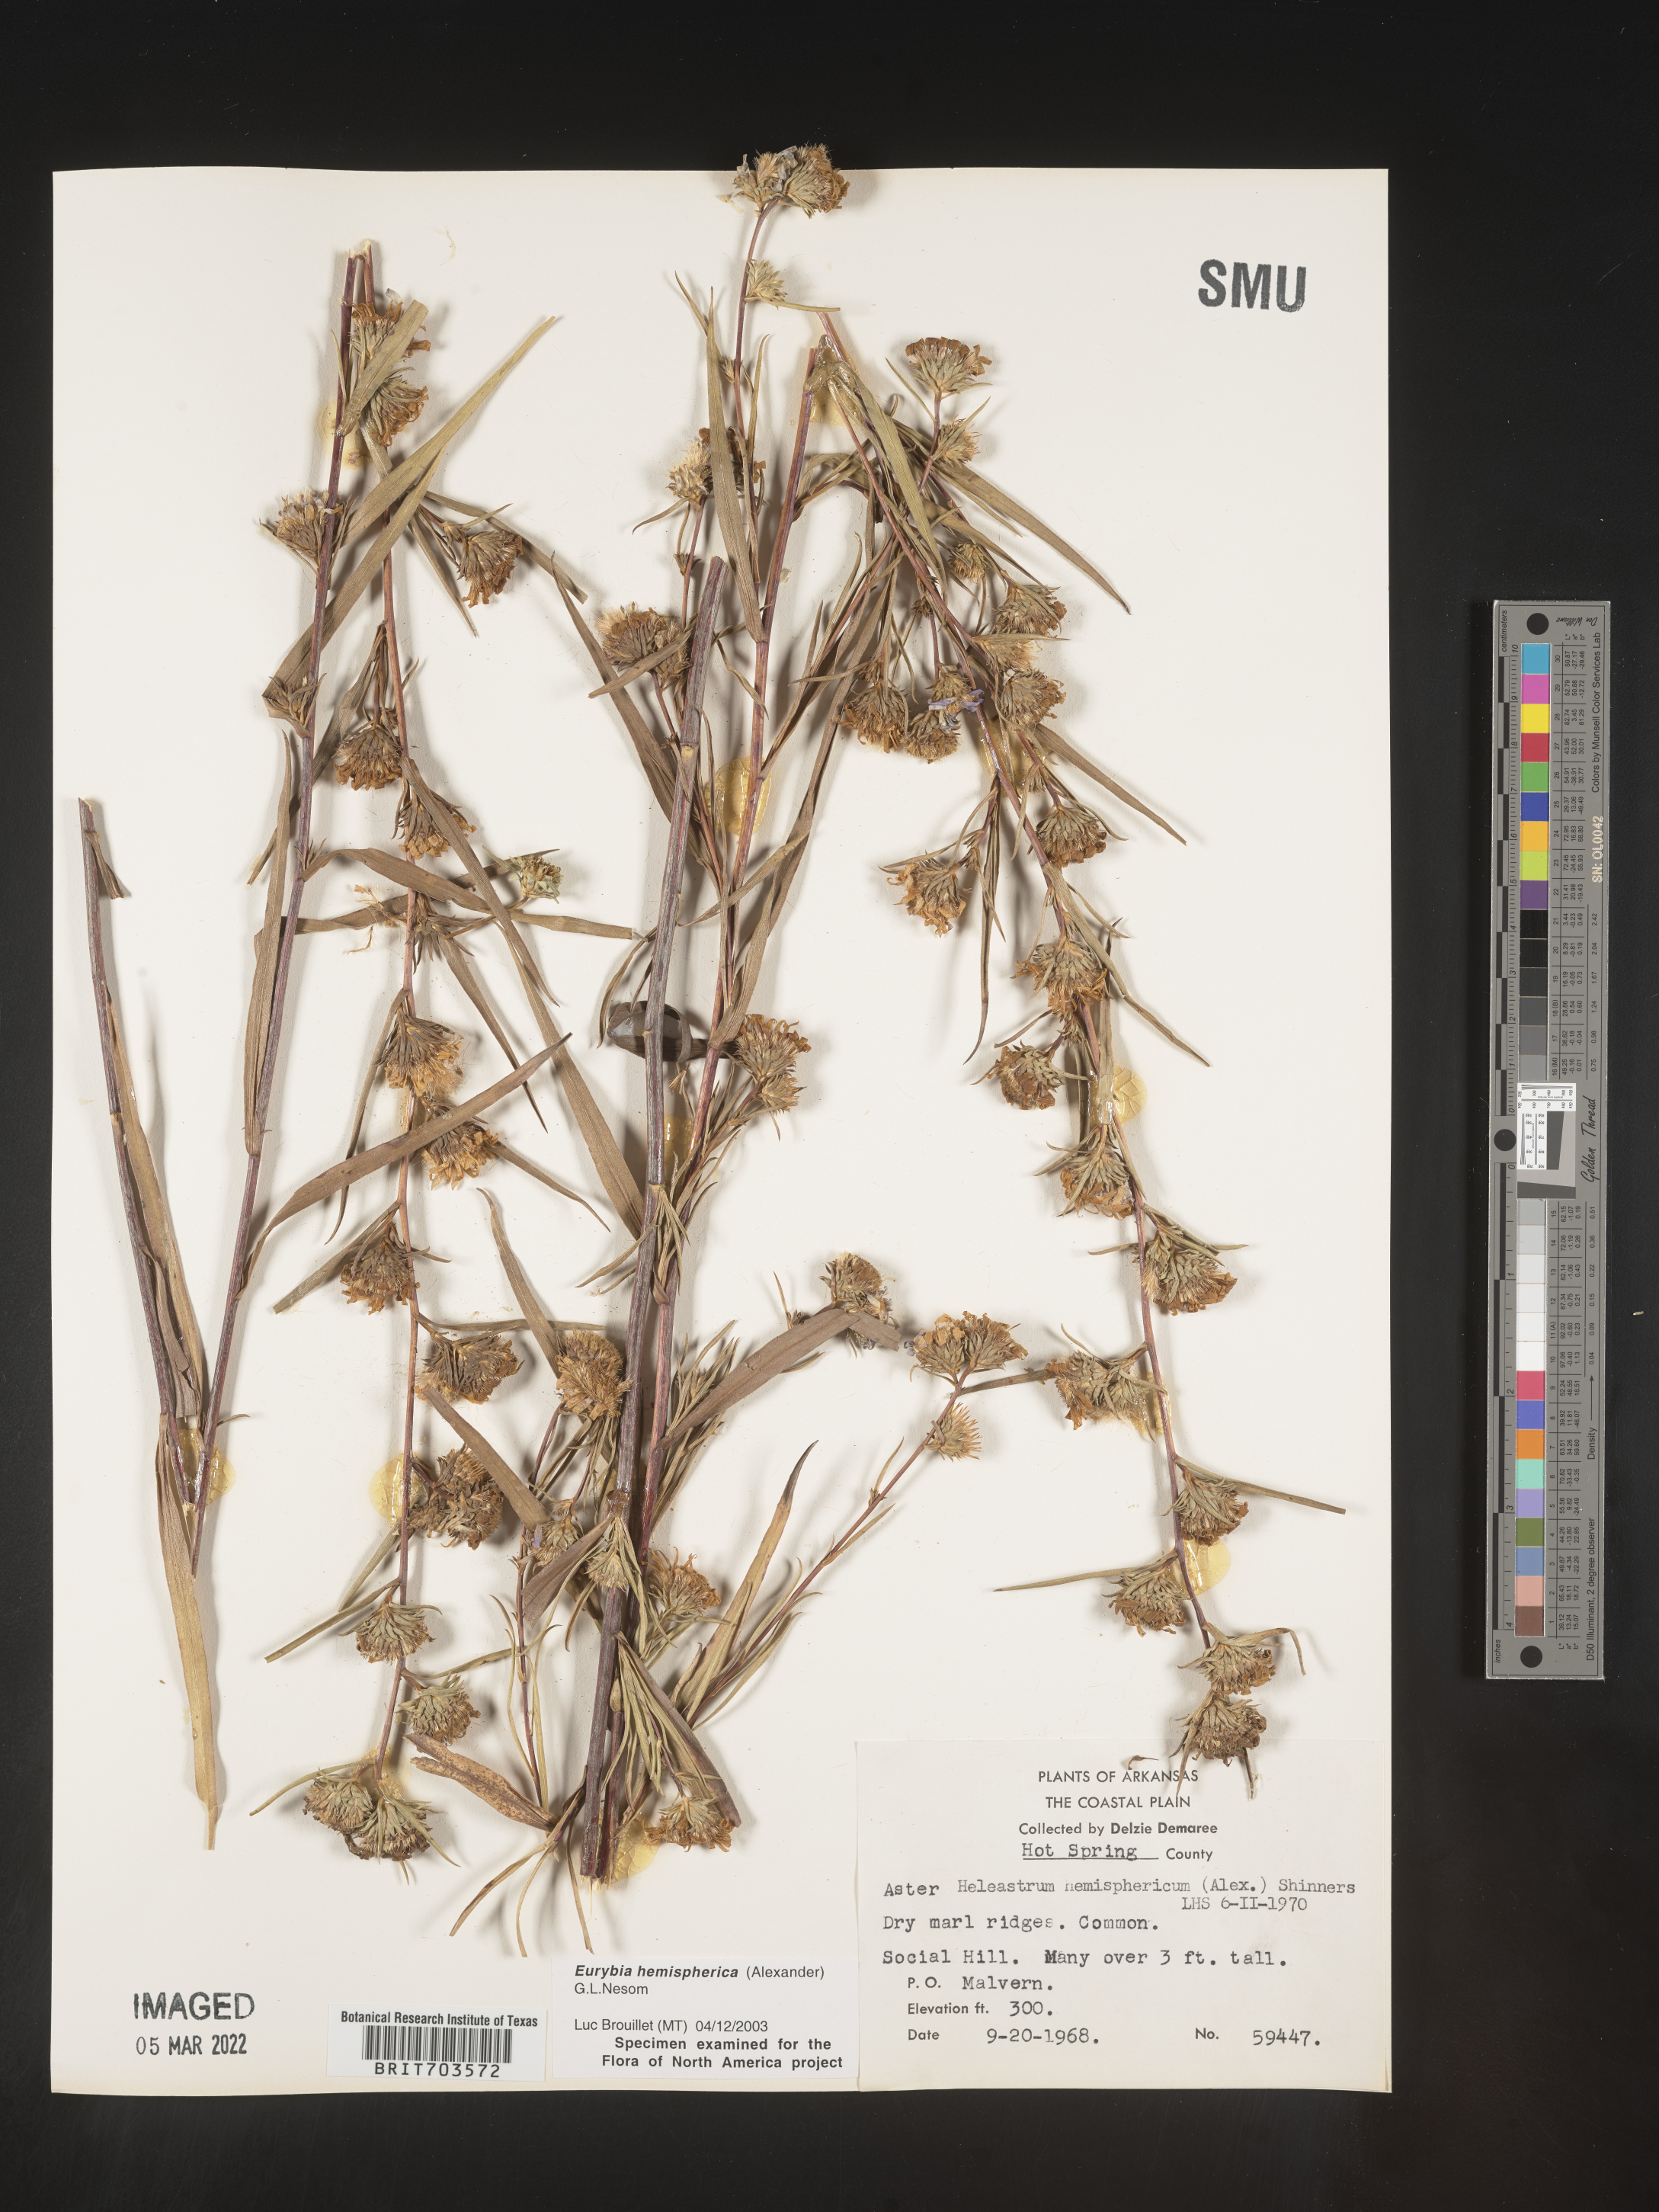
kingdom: Plantae
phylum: Tracheophyta
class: Magnoliopsida
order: Asterales
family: Asteraceae
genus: Eurybia
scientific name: Eurybia hemispherica
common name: Showy aster
